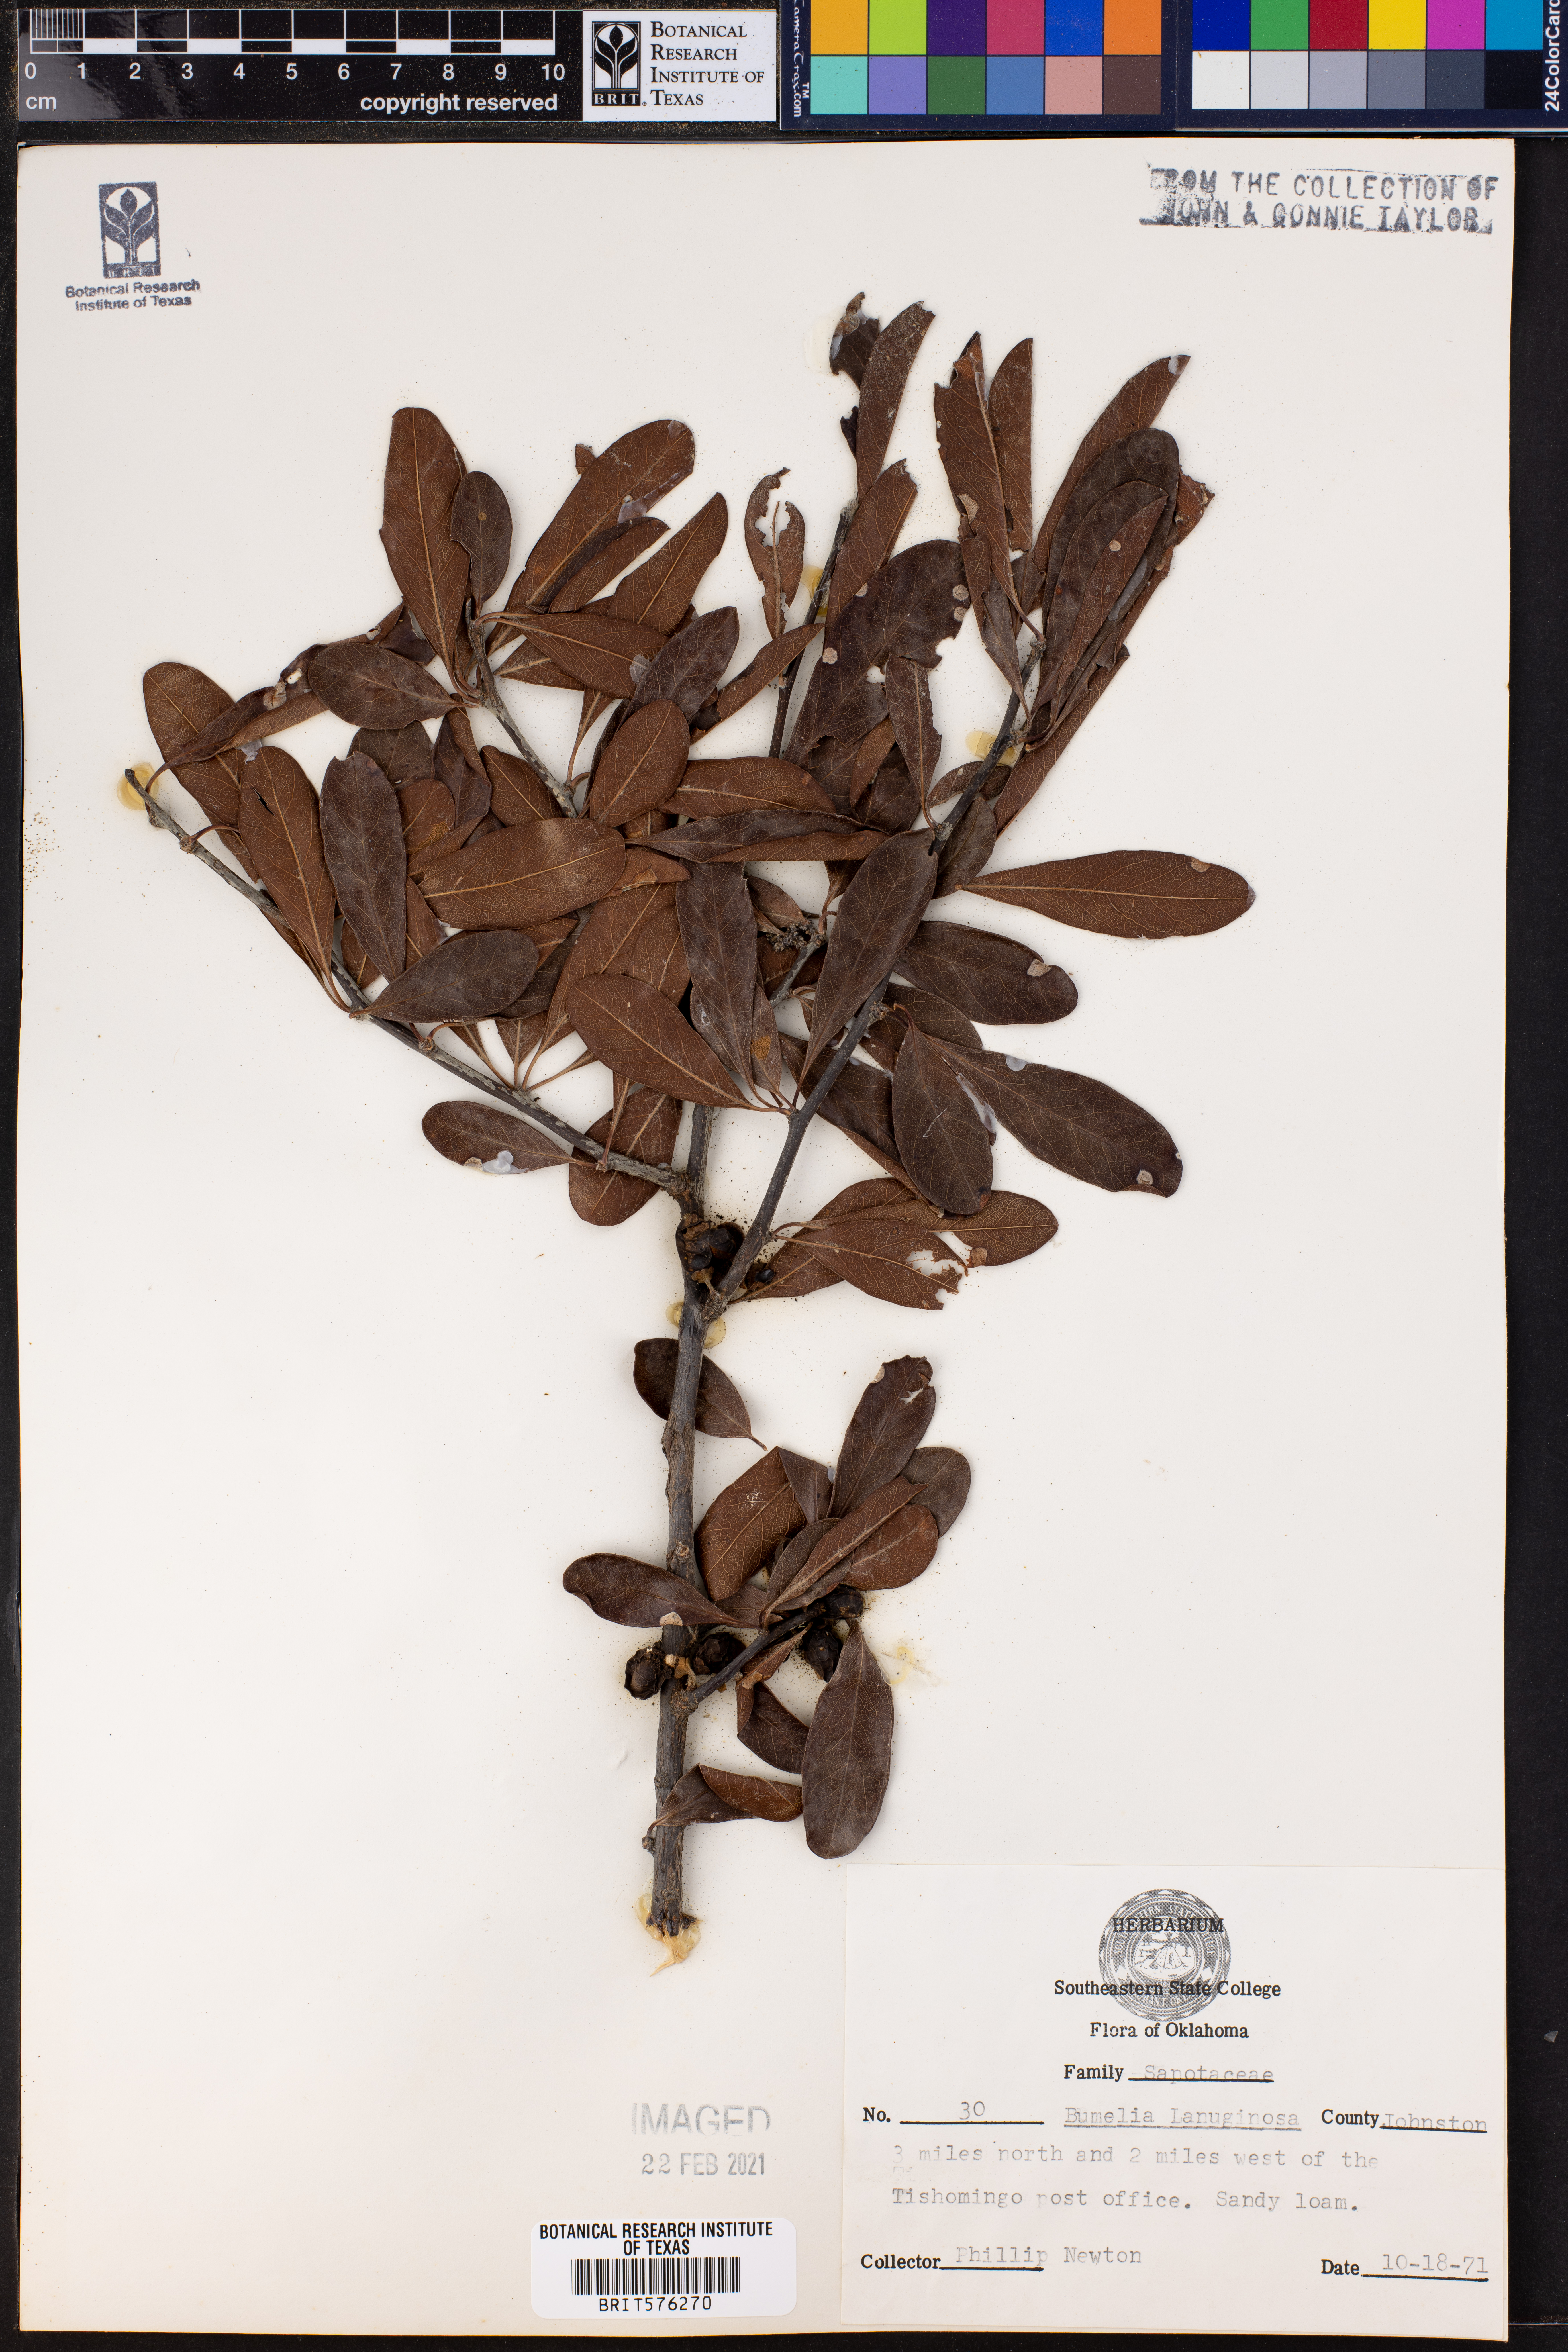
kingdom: Plantae
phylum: Tracheophyta
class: Magnoliopsida
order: Ericales
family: Sapotaceae
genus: Sideroxylon
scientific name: Sideroxylon lanuginosum
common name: Chittamwood
